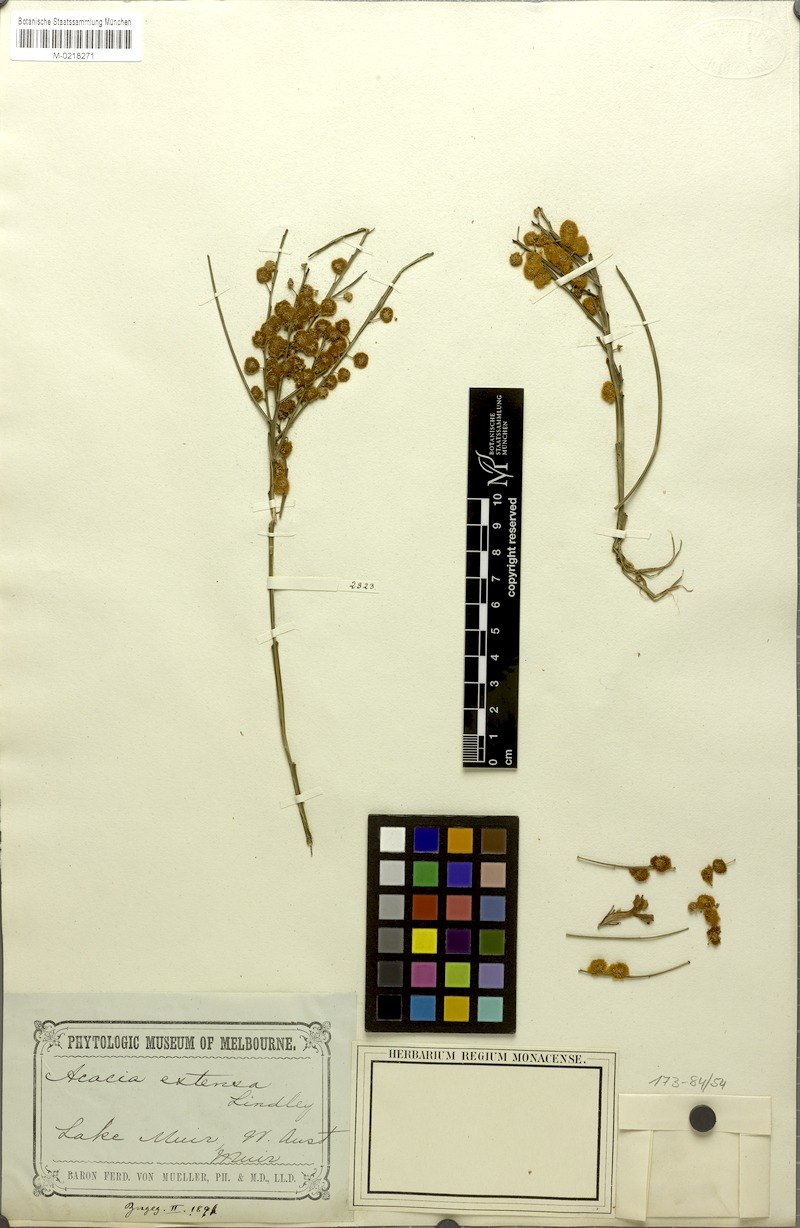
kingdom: Plantae
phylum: Tracheophyta
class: Magnoliopsida
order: Fabales
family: Fabaceae
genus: Acacia
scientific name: Acacia extensa
